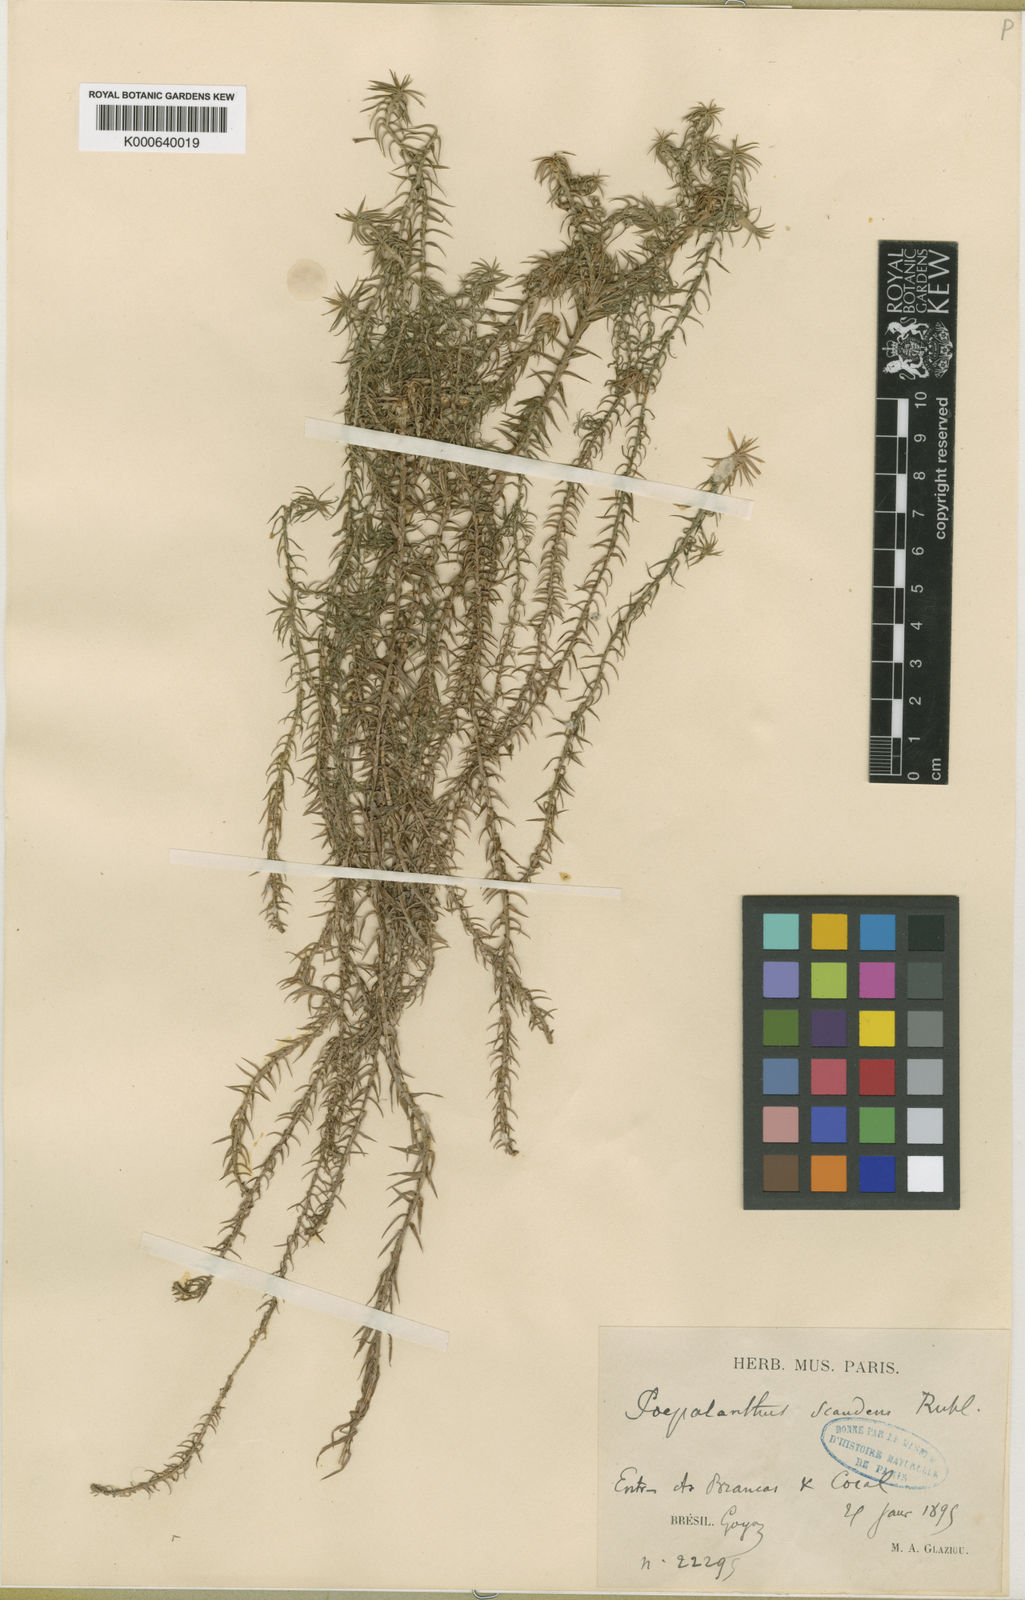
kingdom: Plantae
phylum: Tracheophyta
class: Liliopsida
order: Poales
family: Eriocaulaceae
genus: Paepalanthus
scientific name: Paepalanthus scandens
